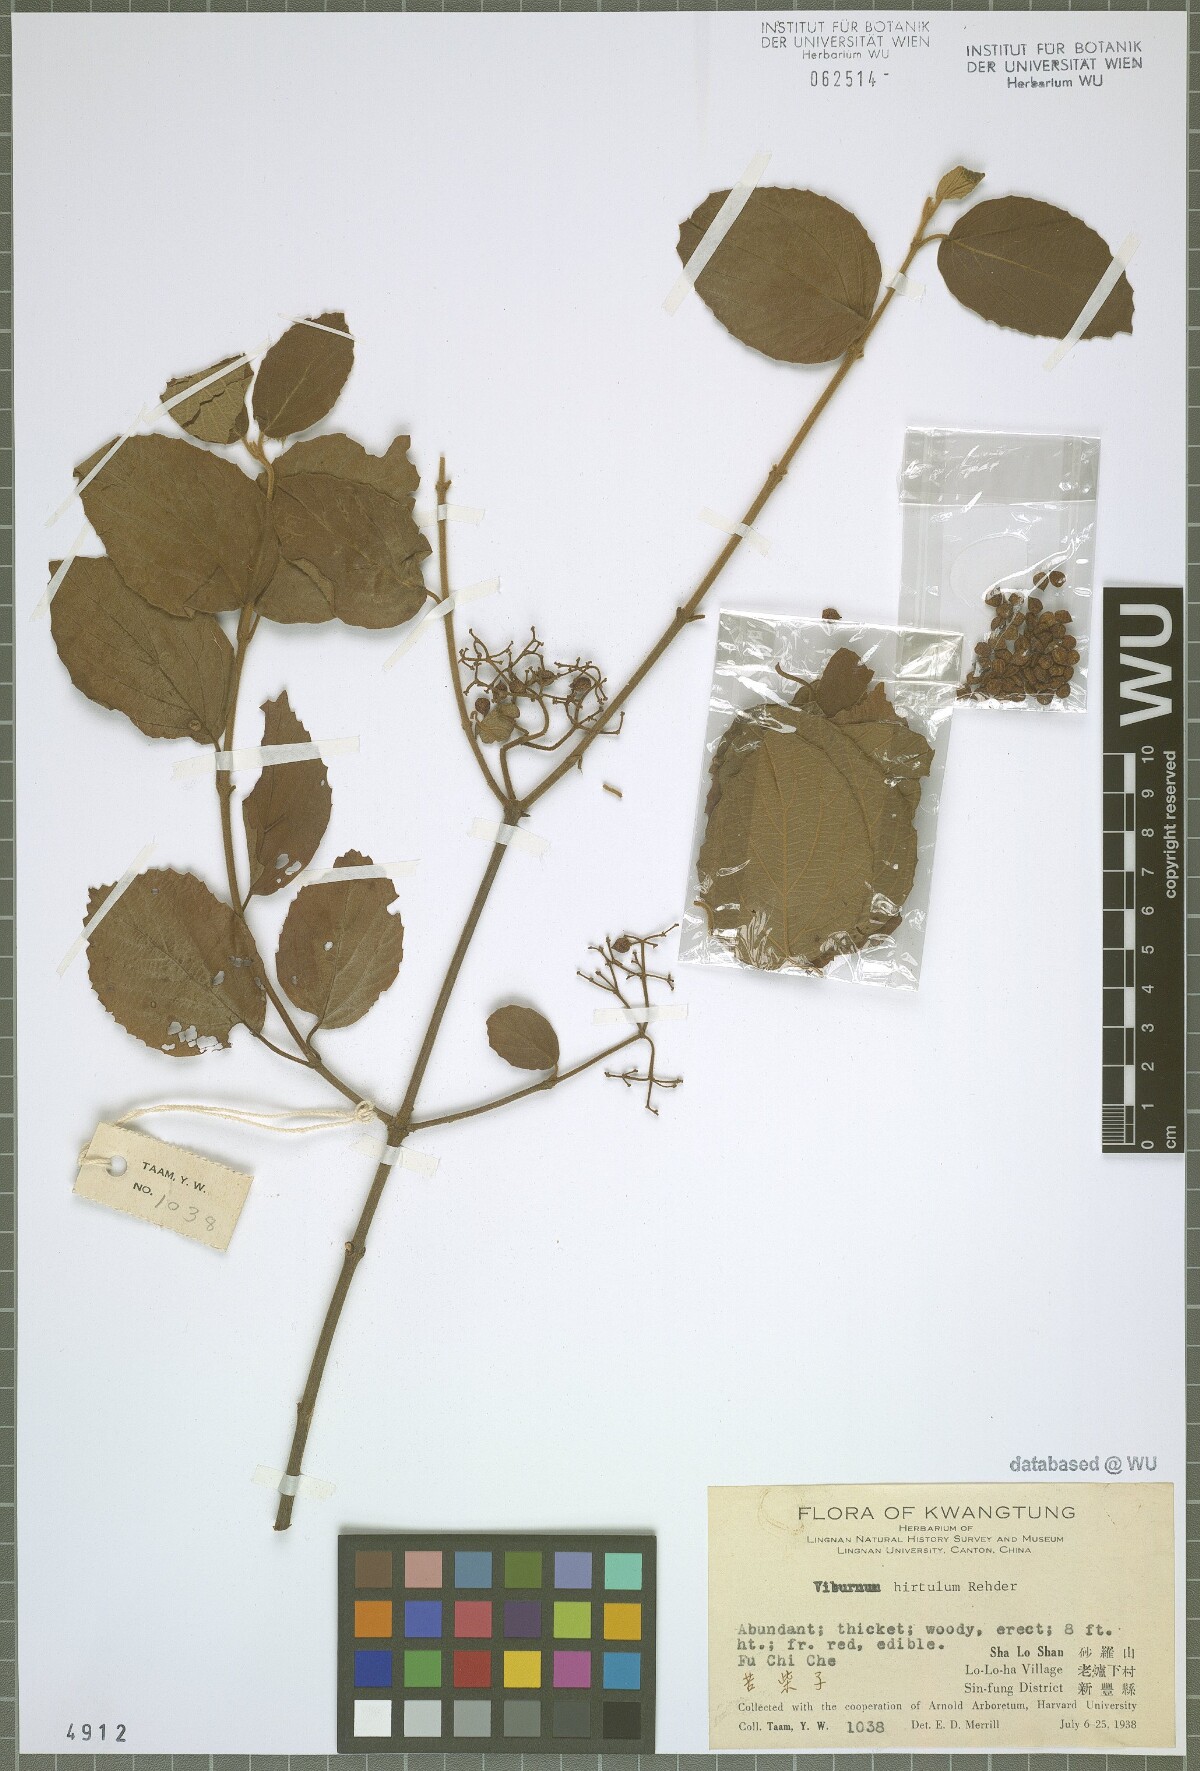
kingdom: Plantae
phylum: Tracheophyta
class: Magnoliopsida
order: Dipsacales
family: Viburnaceae
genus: Viburnum
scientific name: Viburnum fordiae
